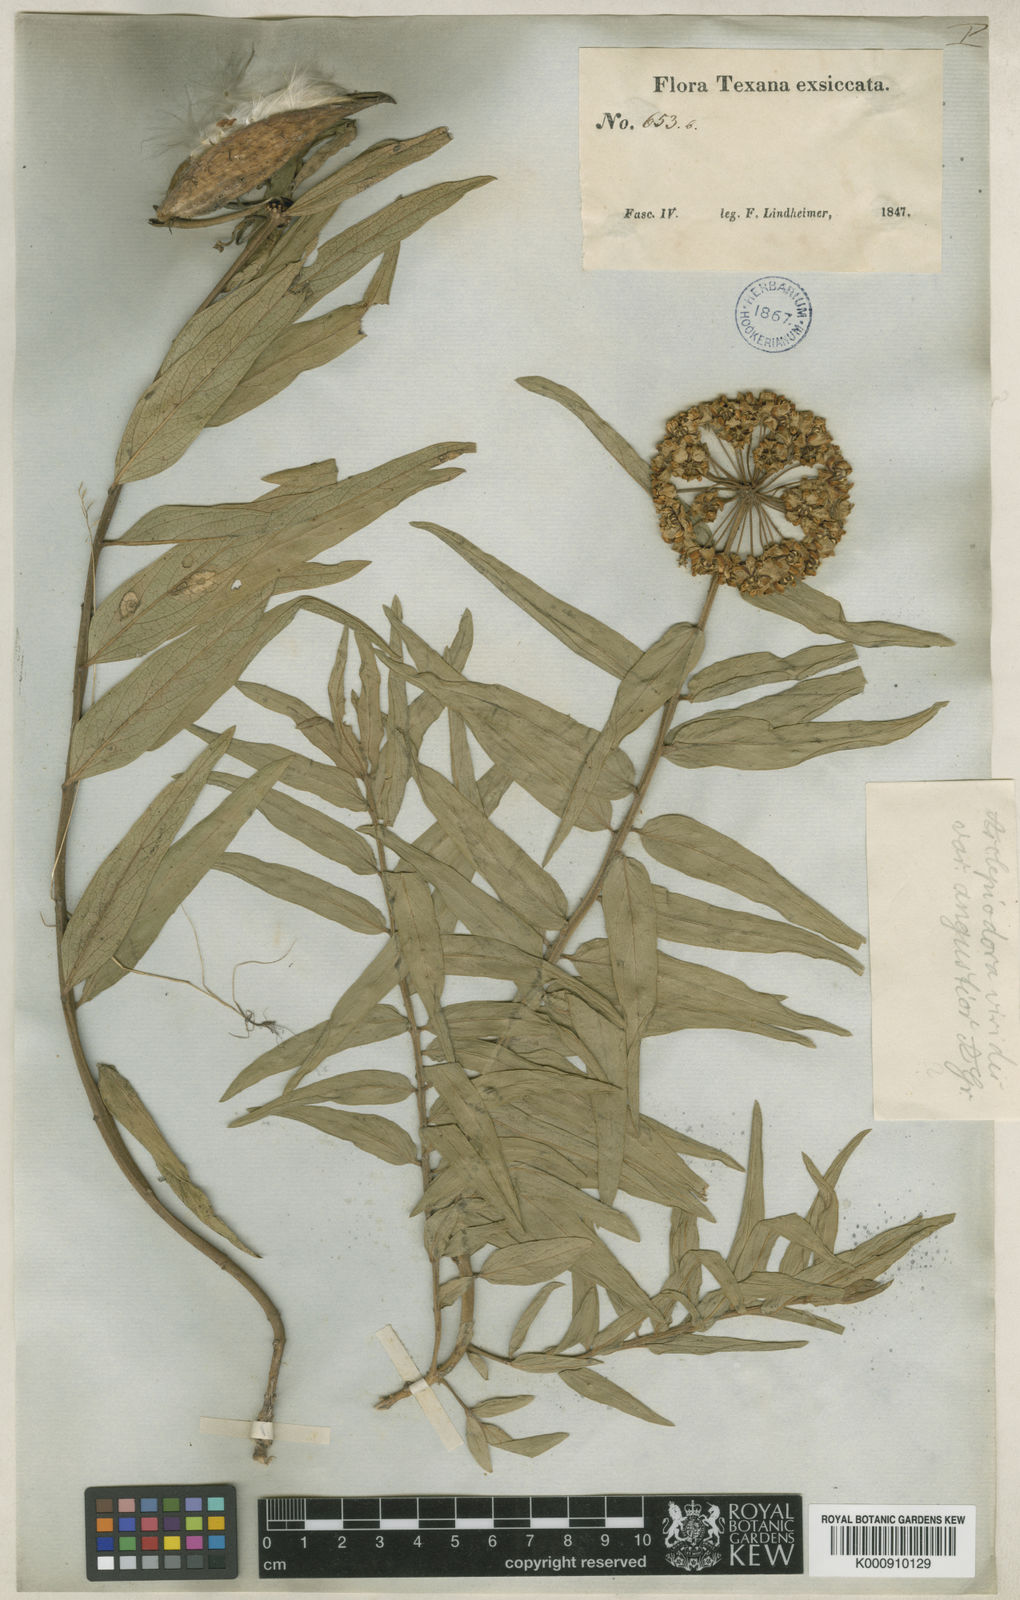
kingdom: Plantae
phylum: Tracheophyta
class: Magnoliopsida
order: Gentianales
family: Apocynaceae
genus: Asclepias
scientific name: Asclepias viridis
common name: Antelope-horns
